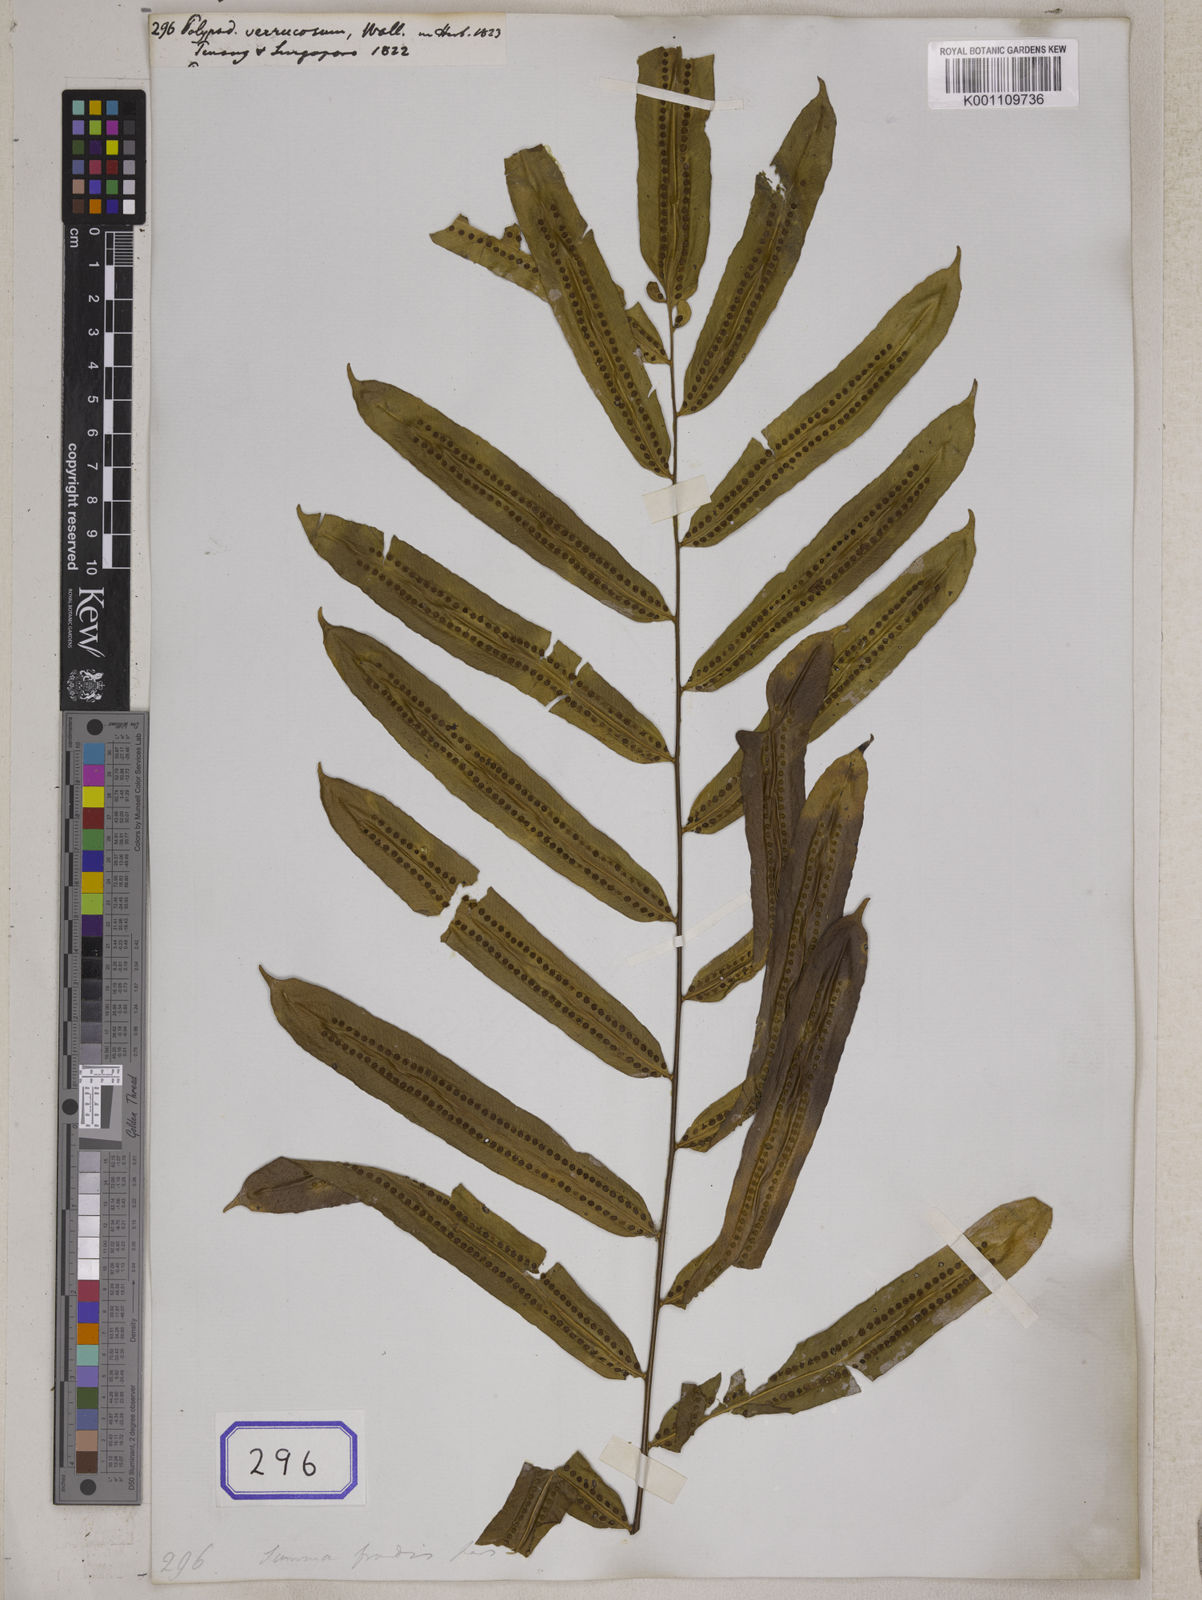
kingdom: Plantae
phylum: Tracheophyta
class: Polypodiopsida
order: Polypodiales
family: Polypodiaceae
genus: Goniophlebium
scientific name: Goniophlebium percussum
